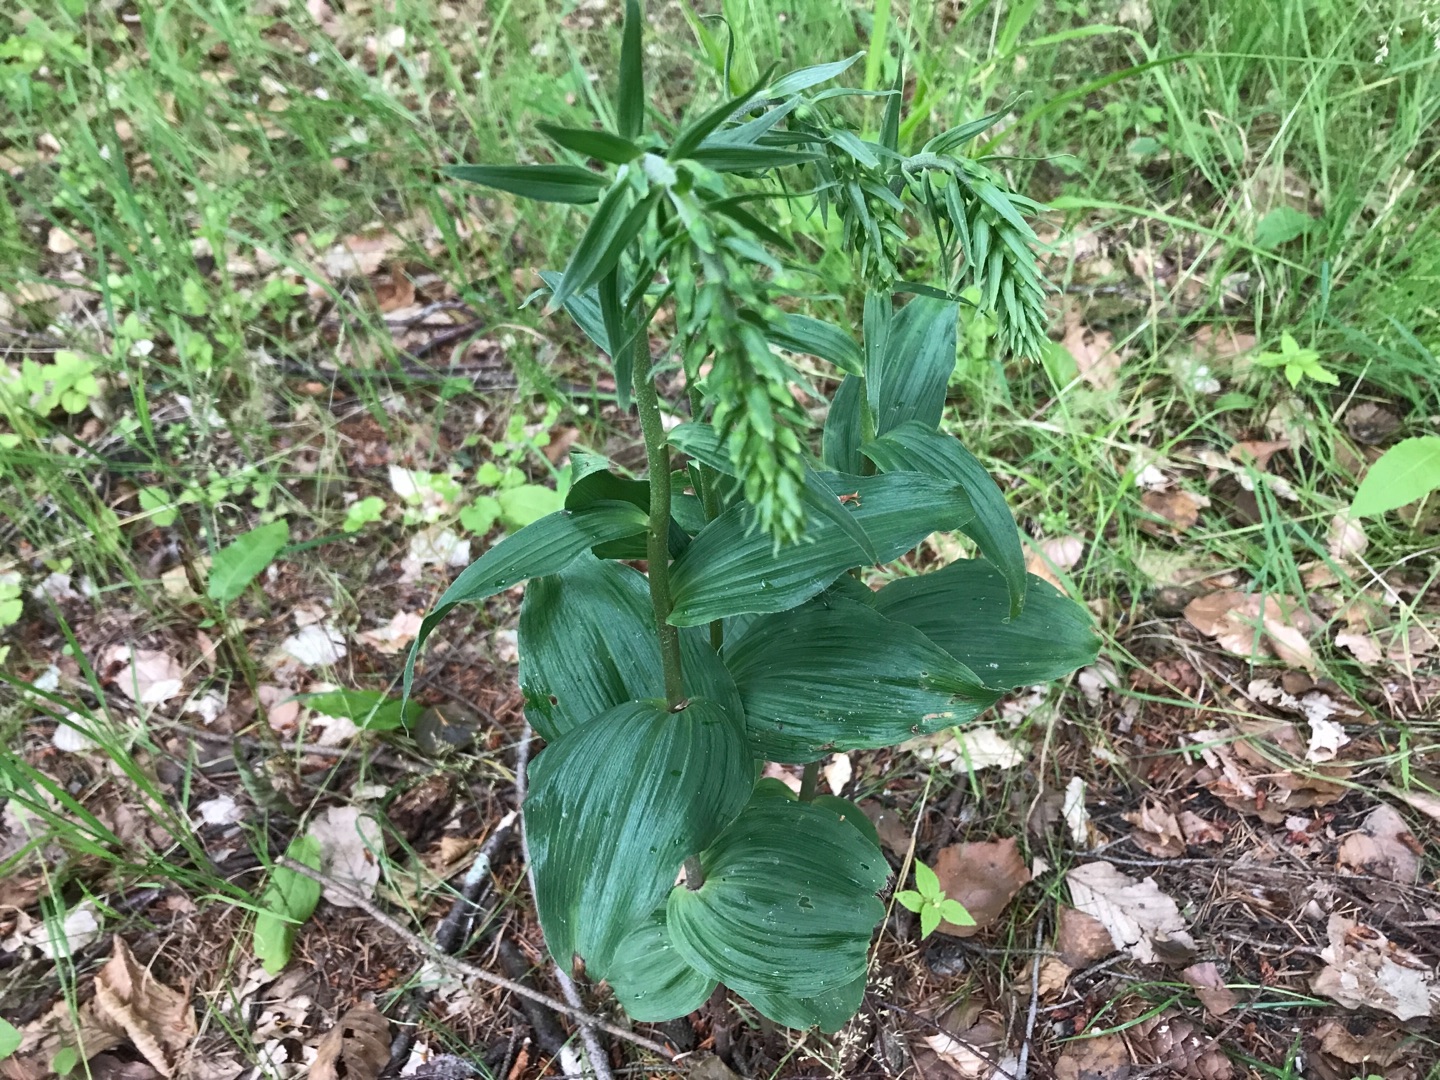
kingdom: Plantae
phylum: Tracheophyta
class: Liliopsida
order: Asparagales
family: Orchidaceae
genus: Epipactis
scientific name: Epipactis helleborine
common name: Skov-hullæbe
